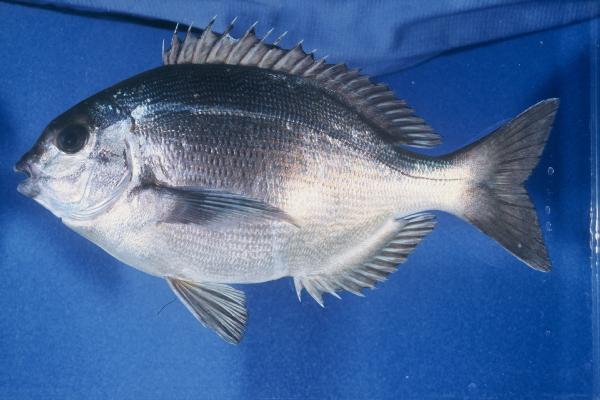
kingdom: Animalia
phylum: Chordata
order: Perciformes
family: Sparidae
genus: Pachymetopon
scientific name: Pachymetopon grande
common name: Bronze bream
